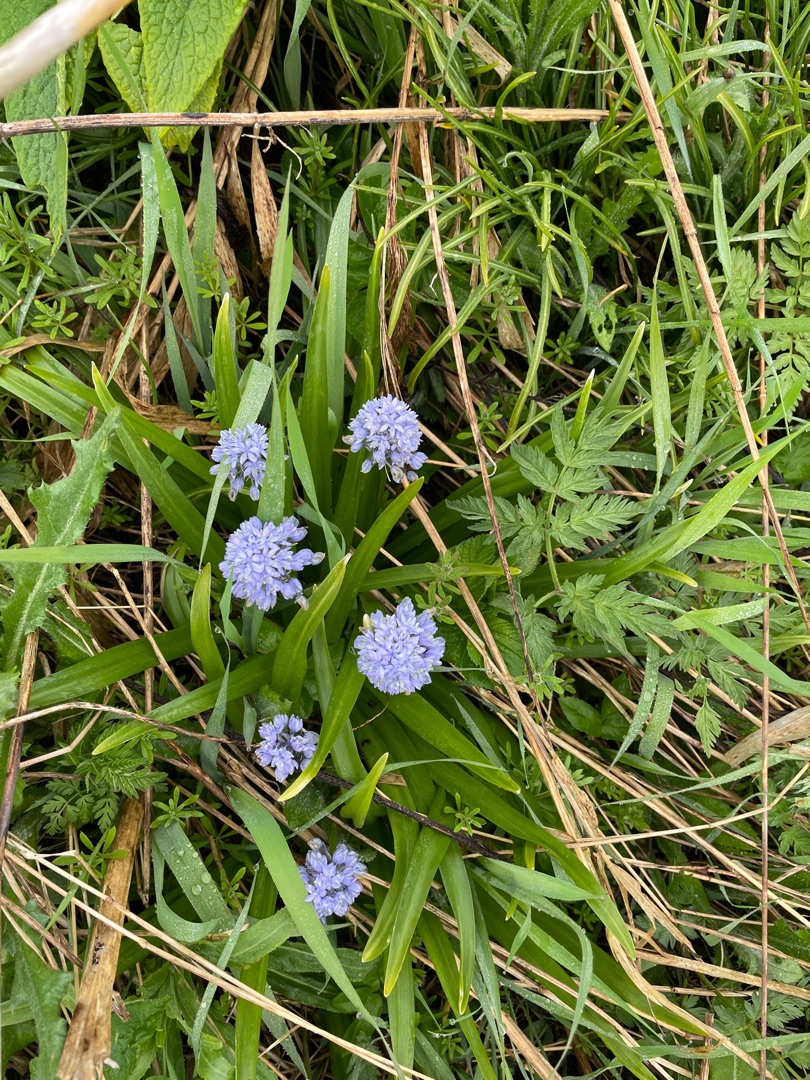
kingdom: Plantae
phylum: Tracheophyta
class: Liliopsida
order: Asparagales
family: Asparagaceae
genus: Hyacinthoides
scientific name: Hyacinthoides italica
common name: Italiensk skilla
